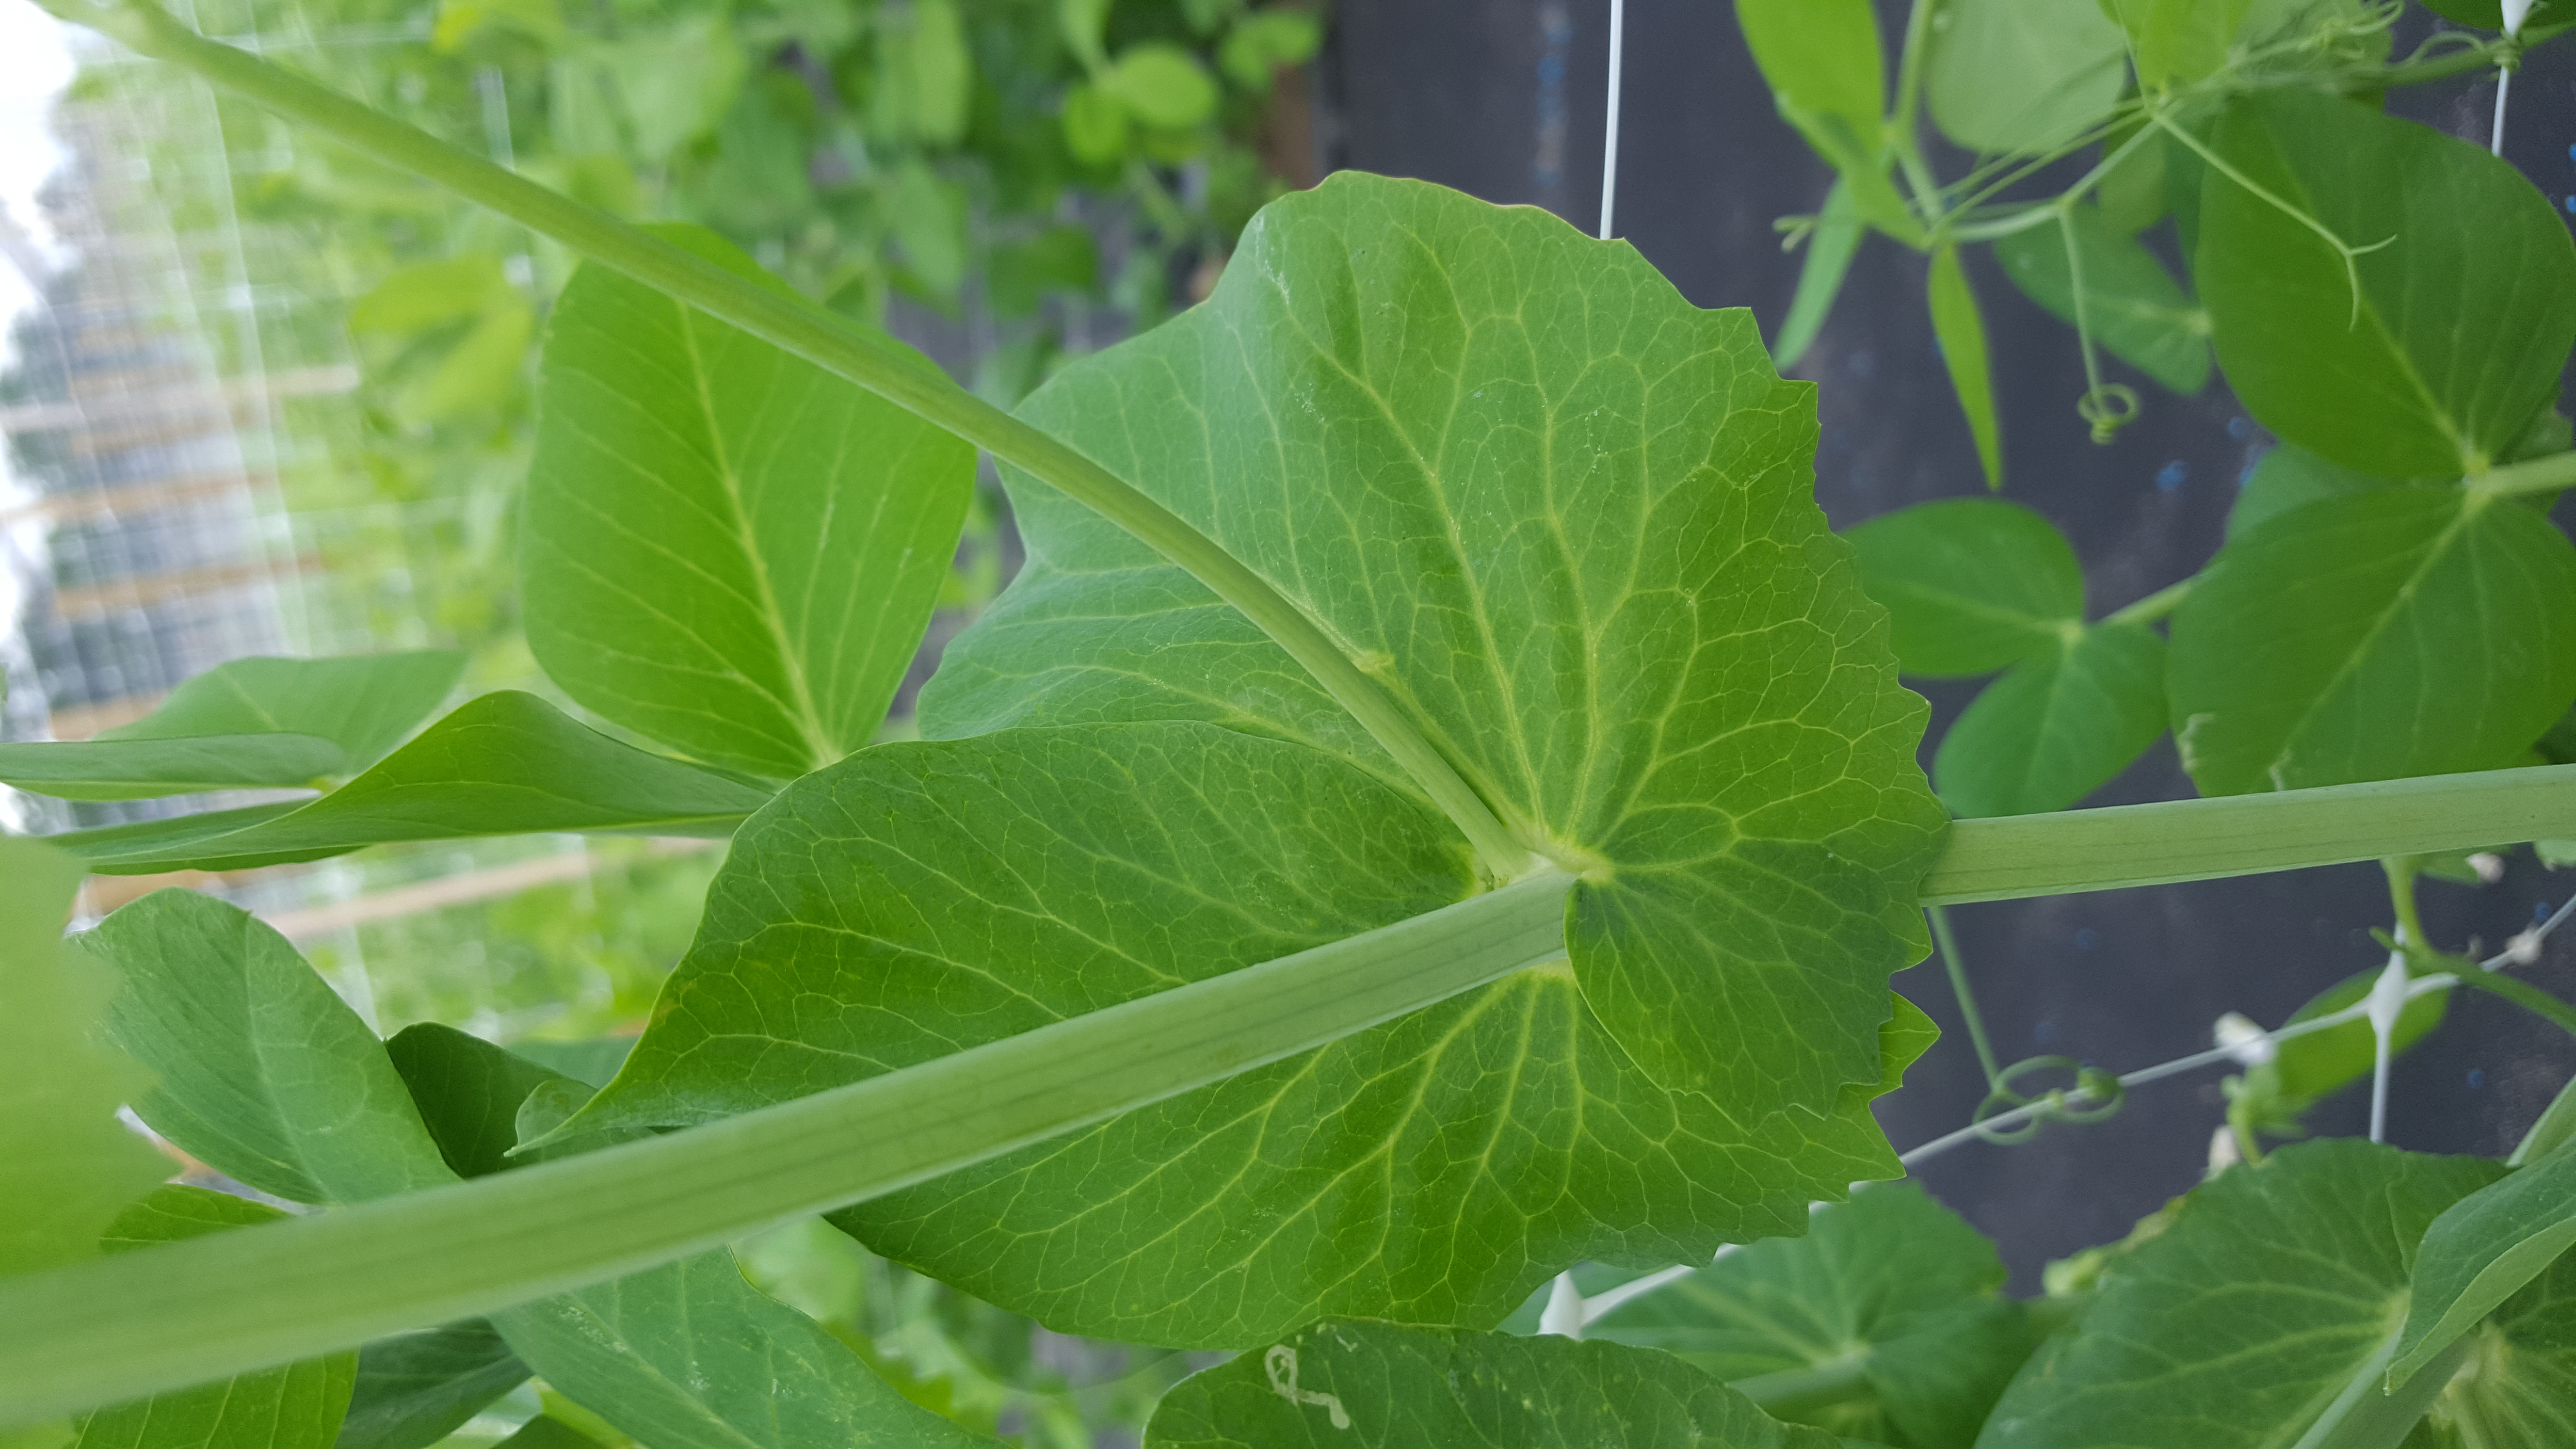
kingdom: Plantae
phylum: Tracheophyta
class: Magnoliopsida
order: Fabales
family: Fabaceae
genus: Lathyrus
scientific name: Lathyrus oleraceus
